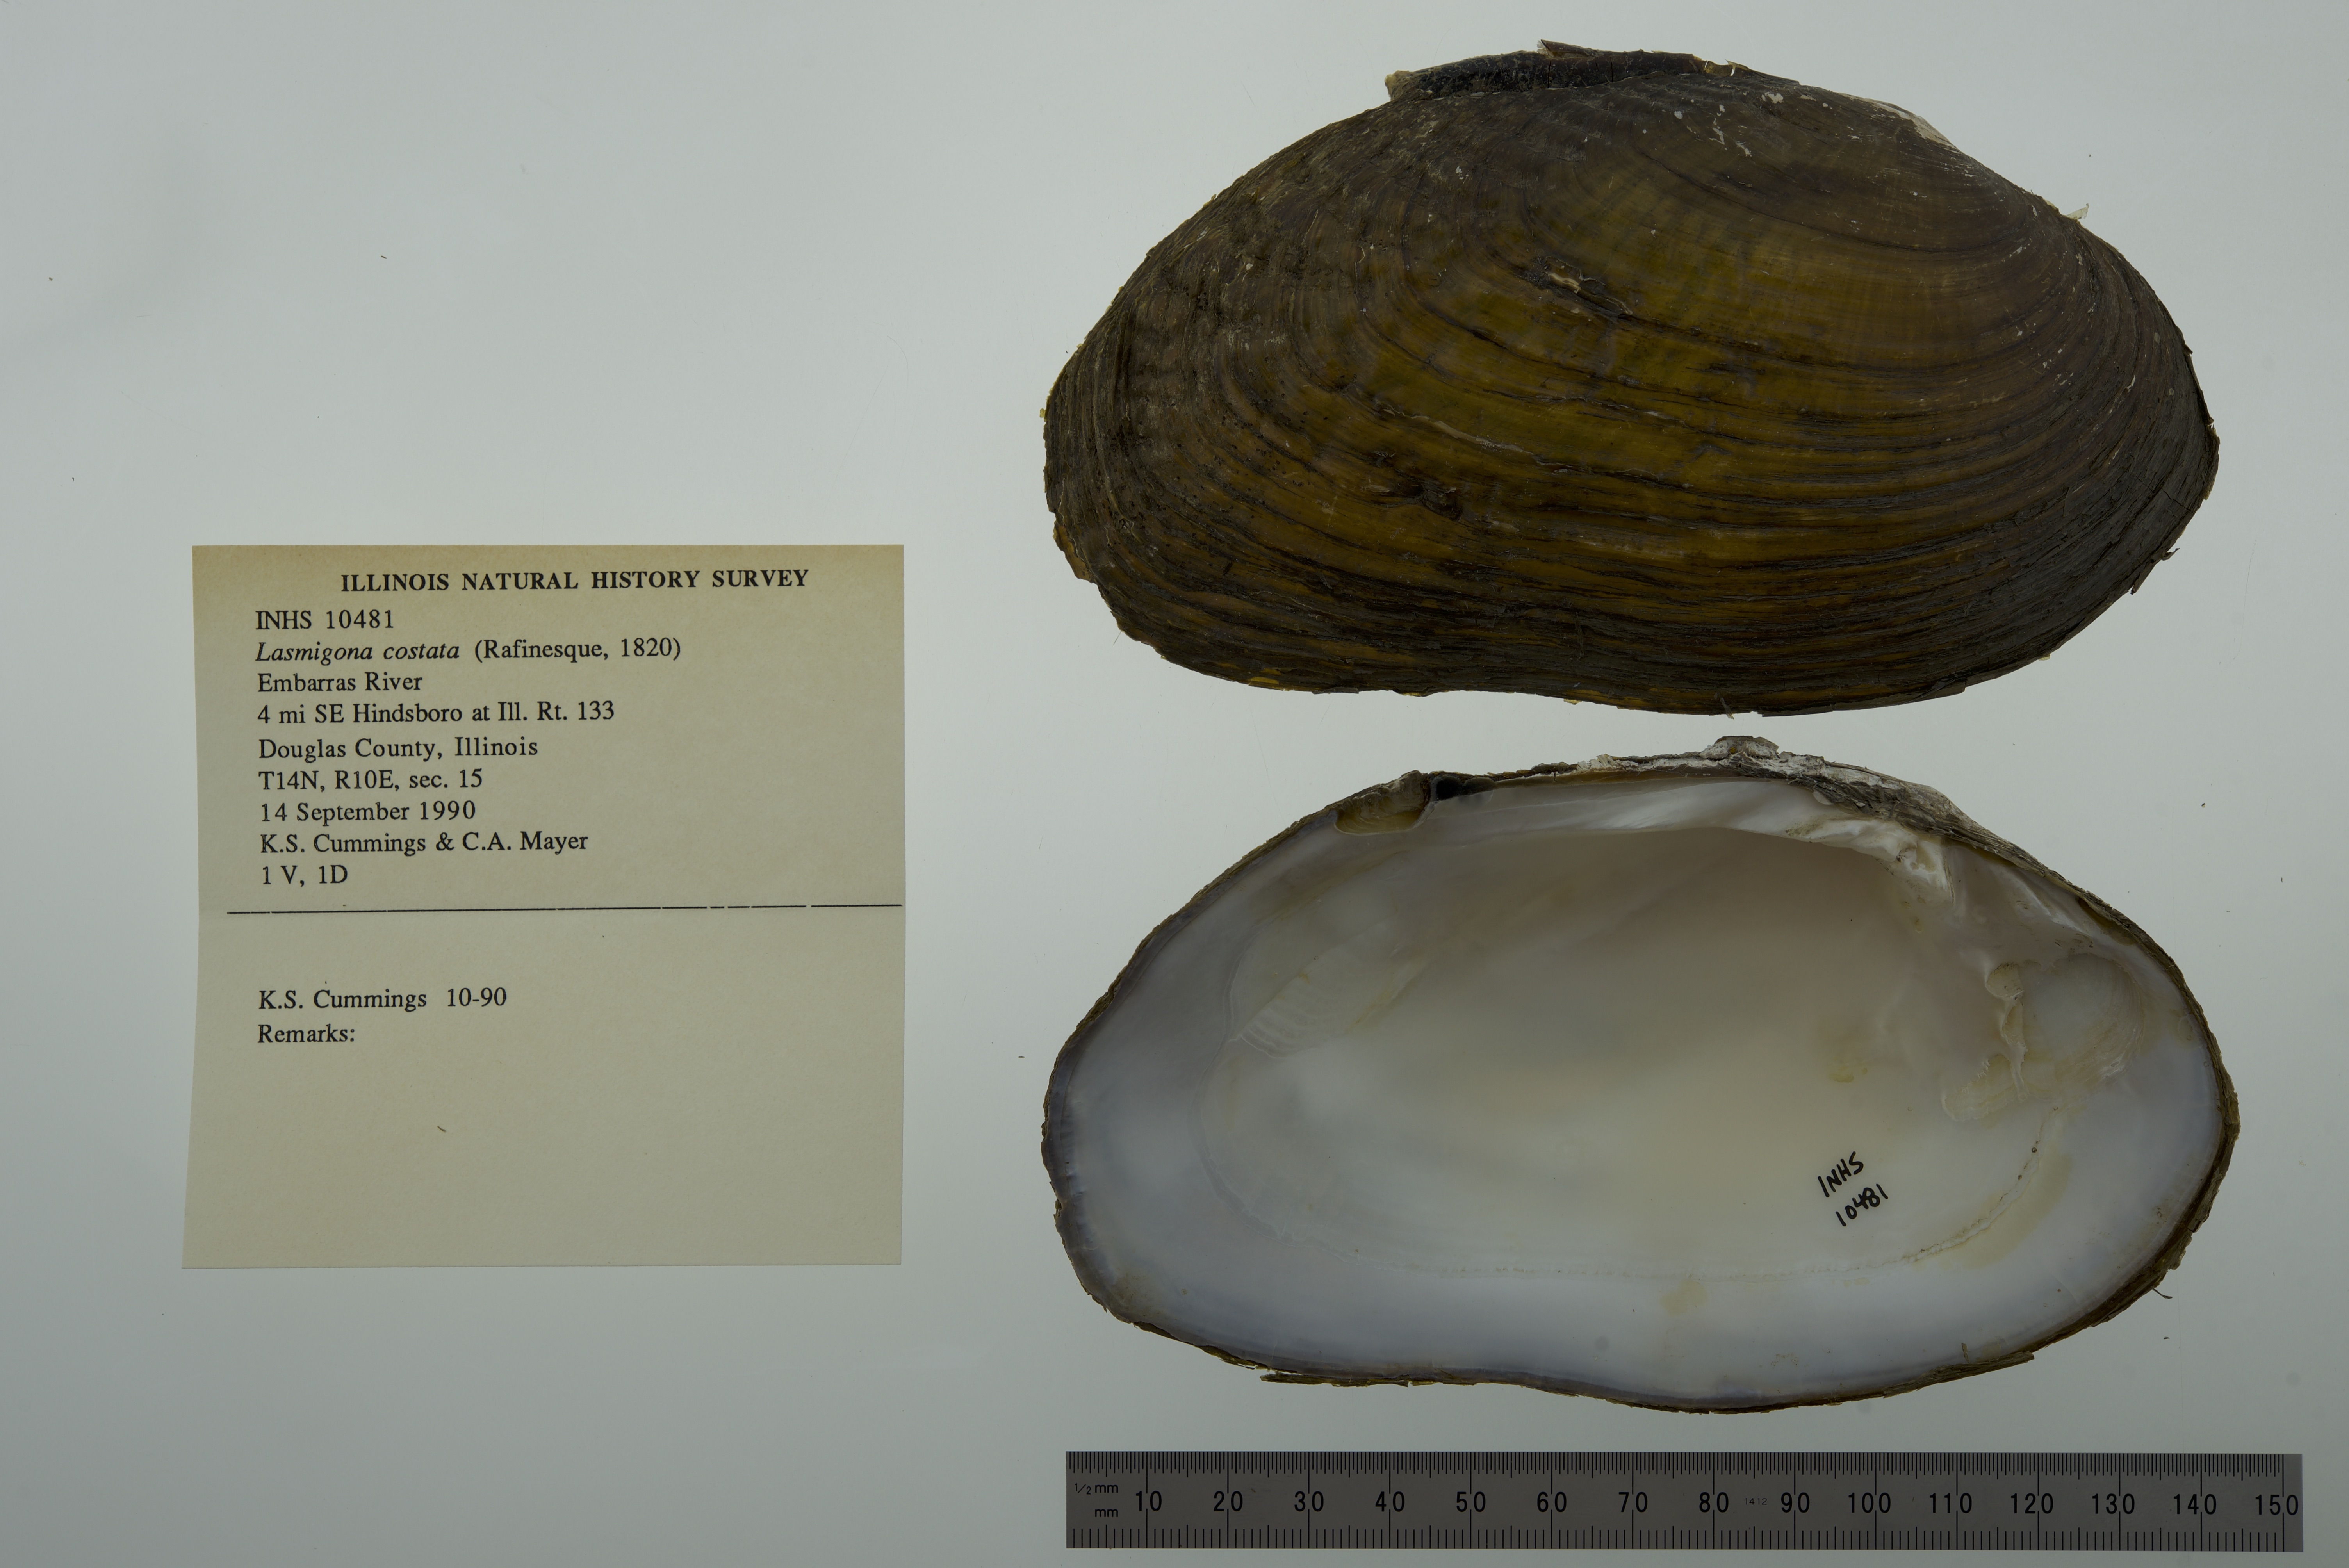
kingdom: Animalia
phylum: Mollusca
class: Bivalvia
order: Unionida
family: Unionidae
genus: Lasmigona
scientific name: Lasmigona costata
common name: Flutedshell
